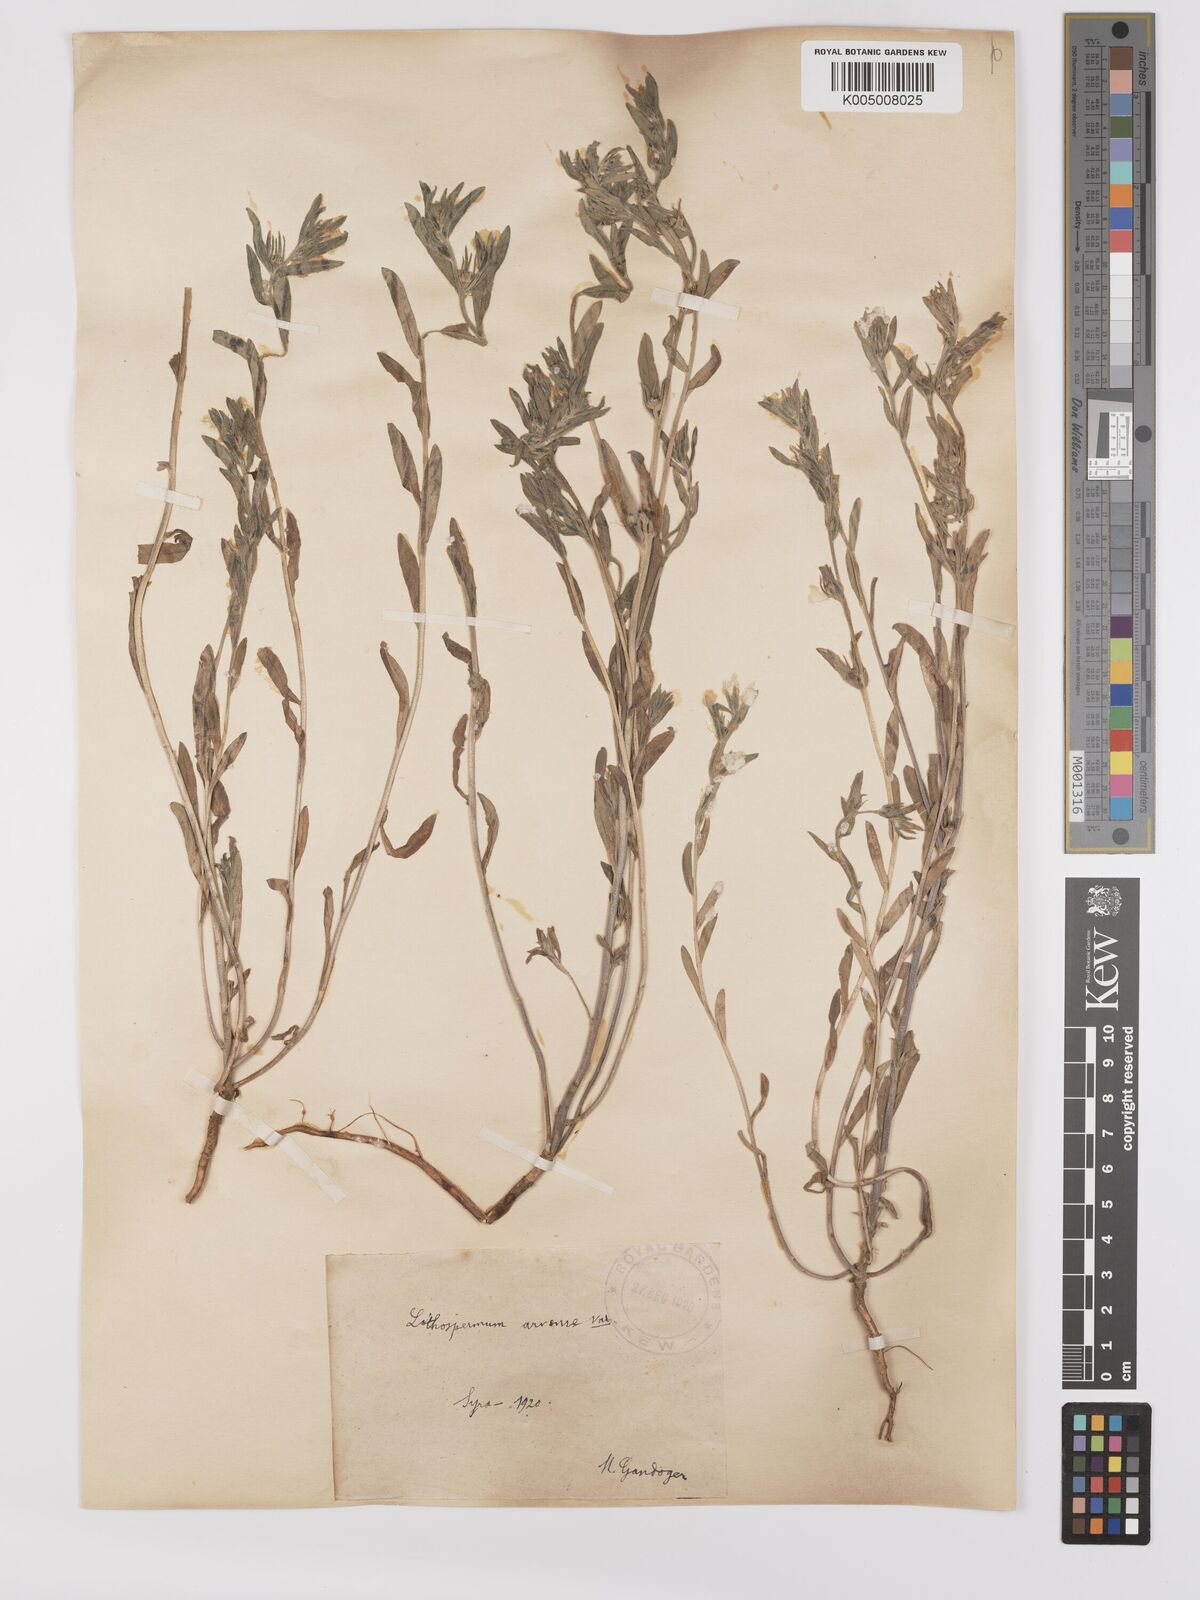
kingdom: Plantae
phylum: Tracheophyta
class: Magnoliopsida
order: Boraginales
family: Boraginaceae
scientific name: Boraginaceae
